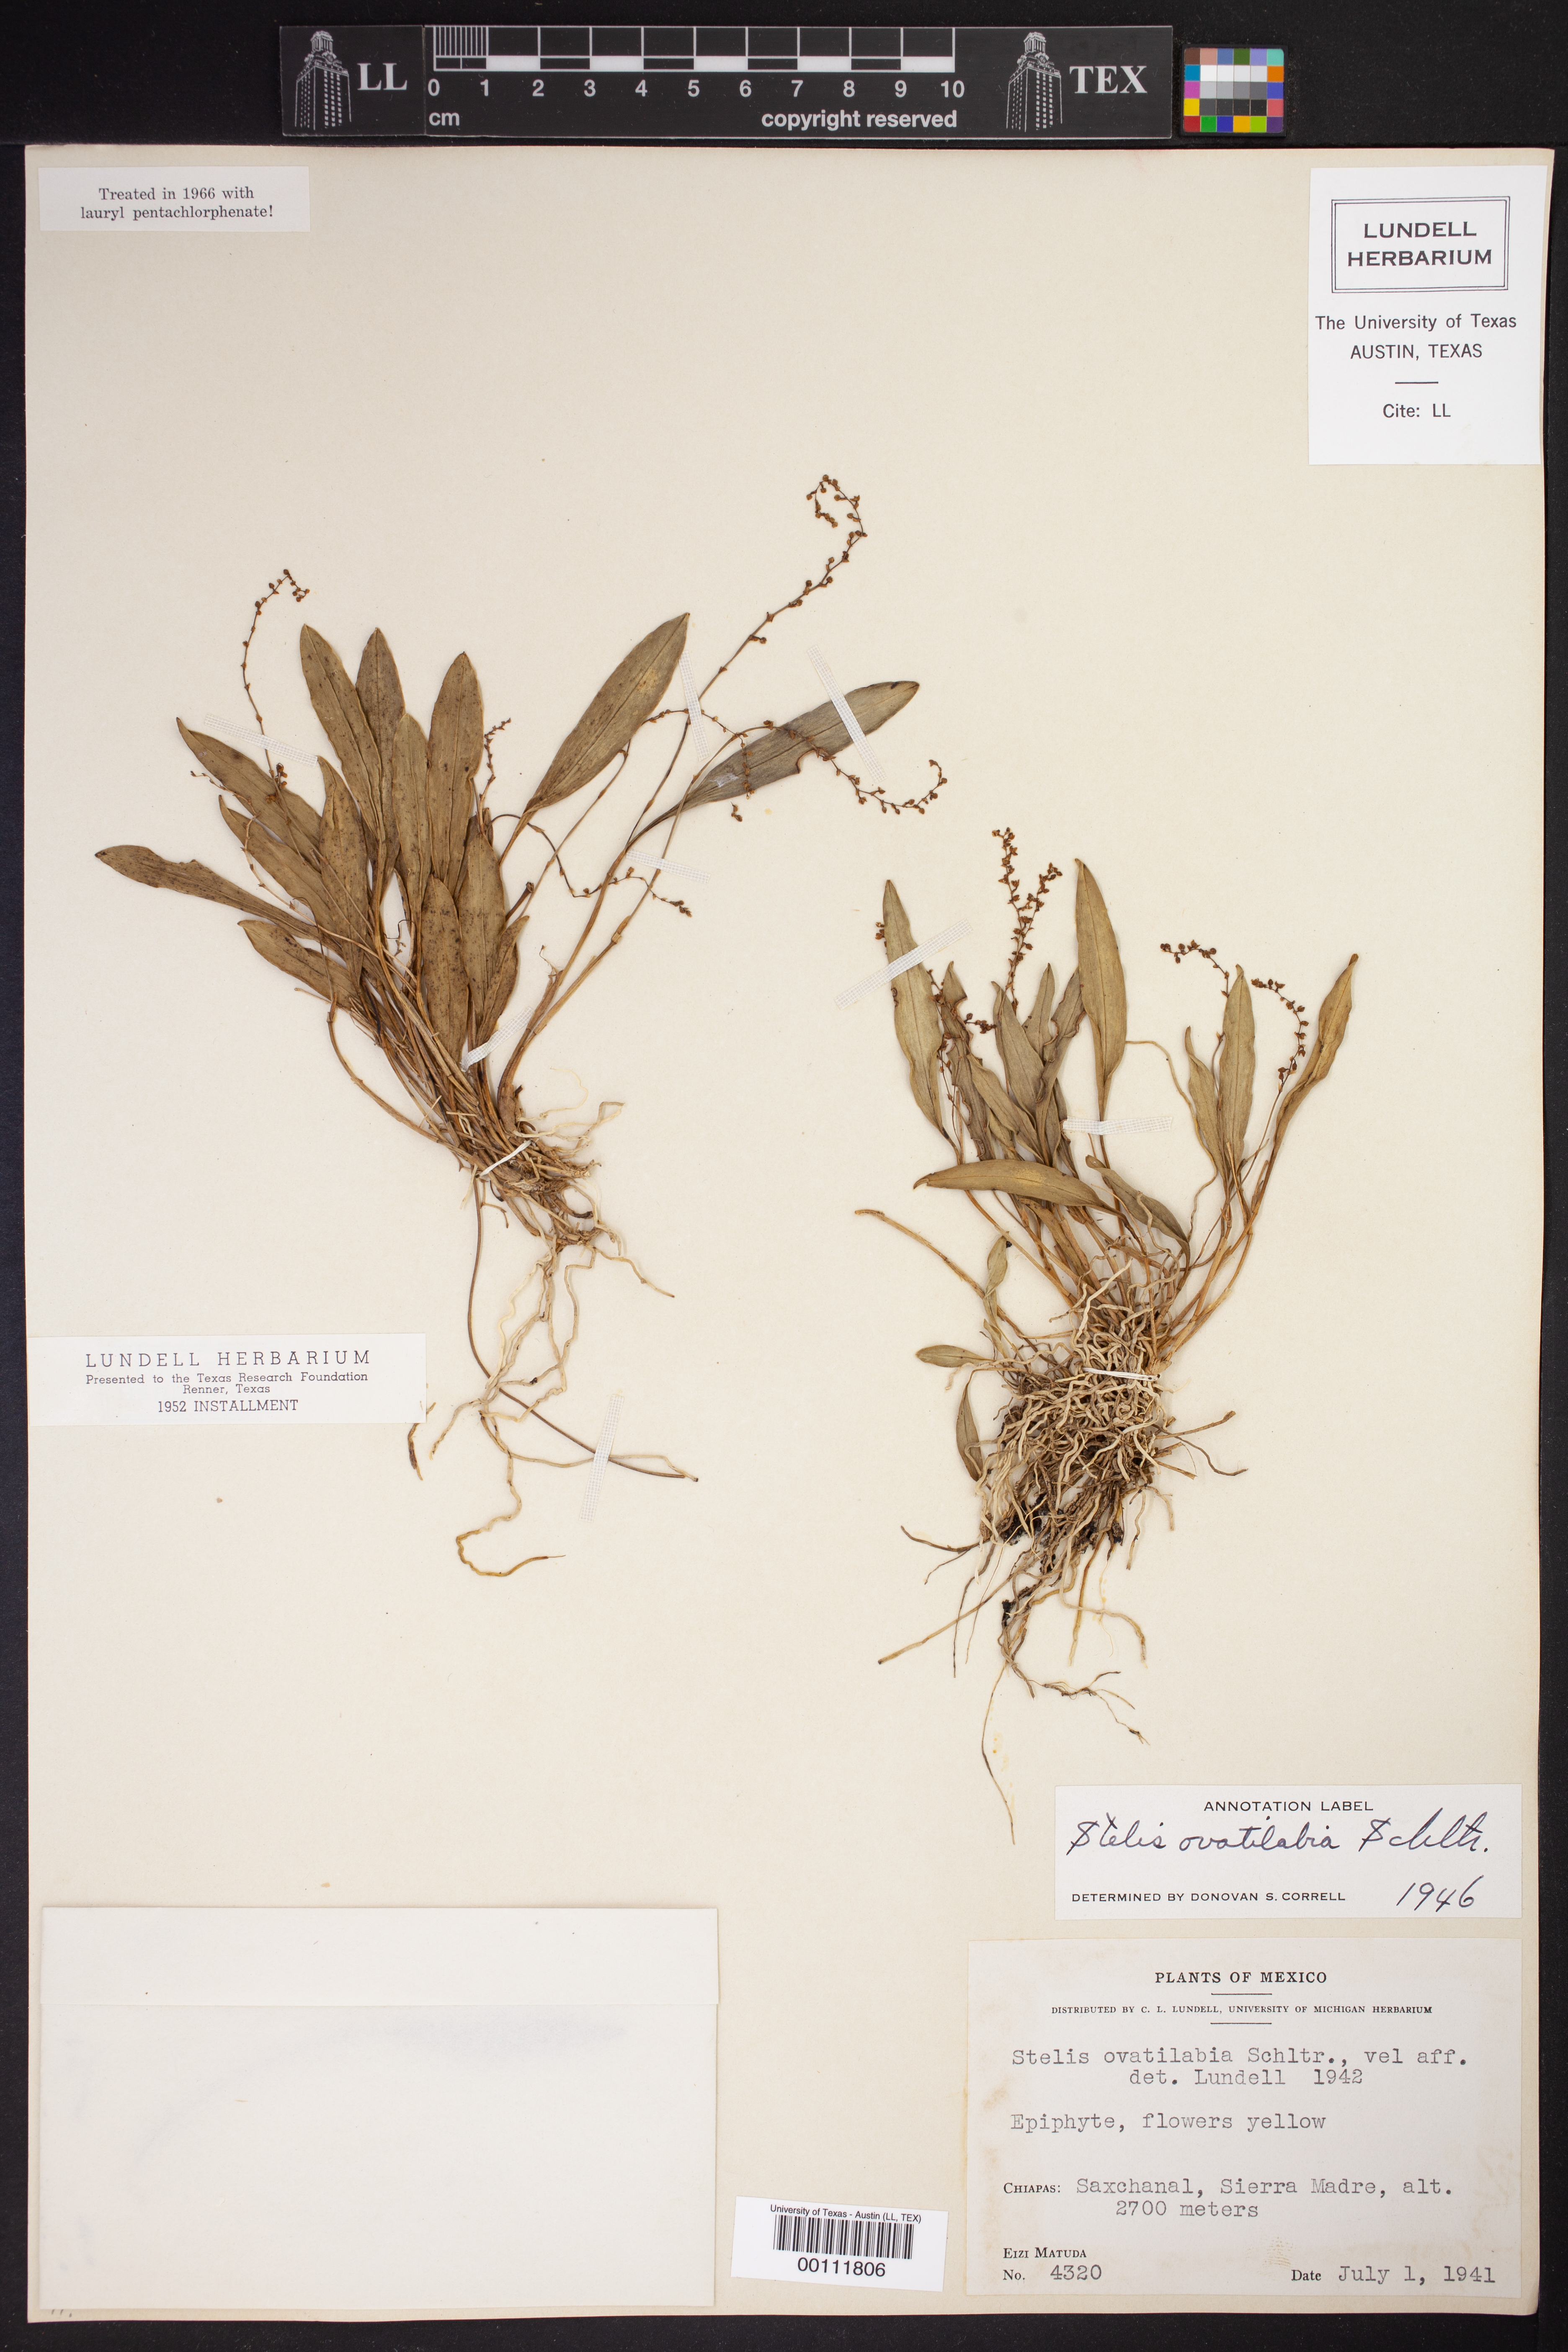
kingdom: Plantae
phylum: Tracheophyta
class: Liliopsida
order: Asparagales
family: Orchidaceae
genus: Stelis
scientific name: Stelis ovatilabia
